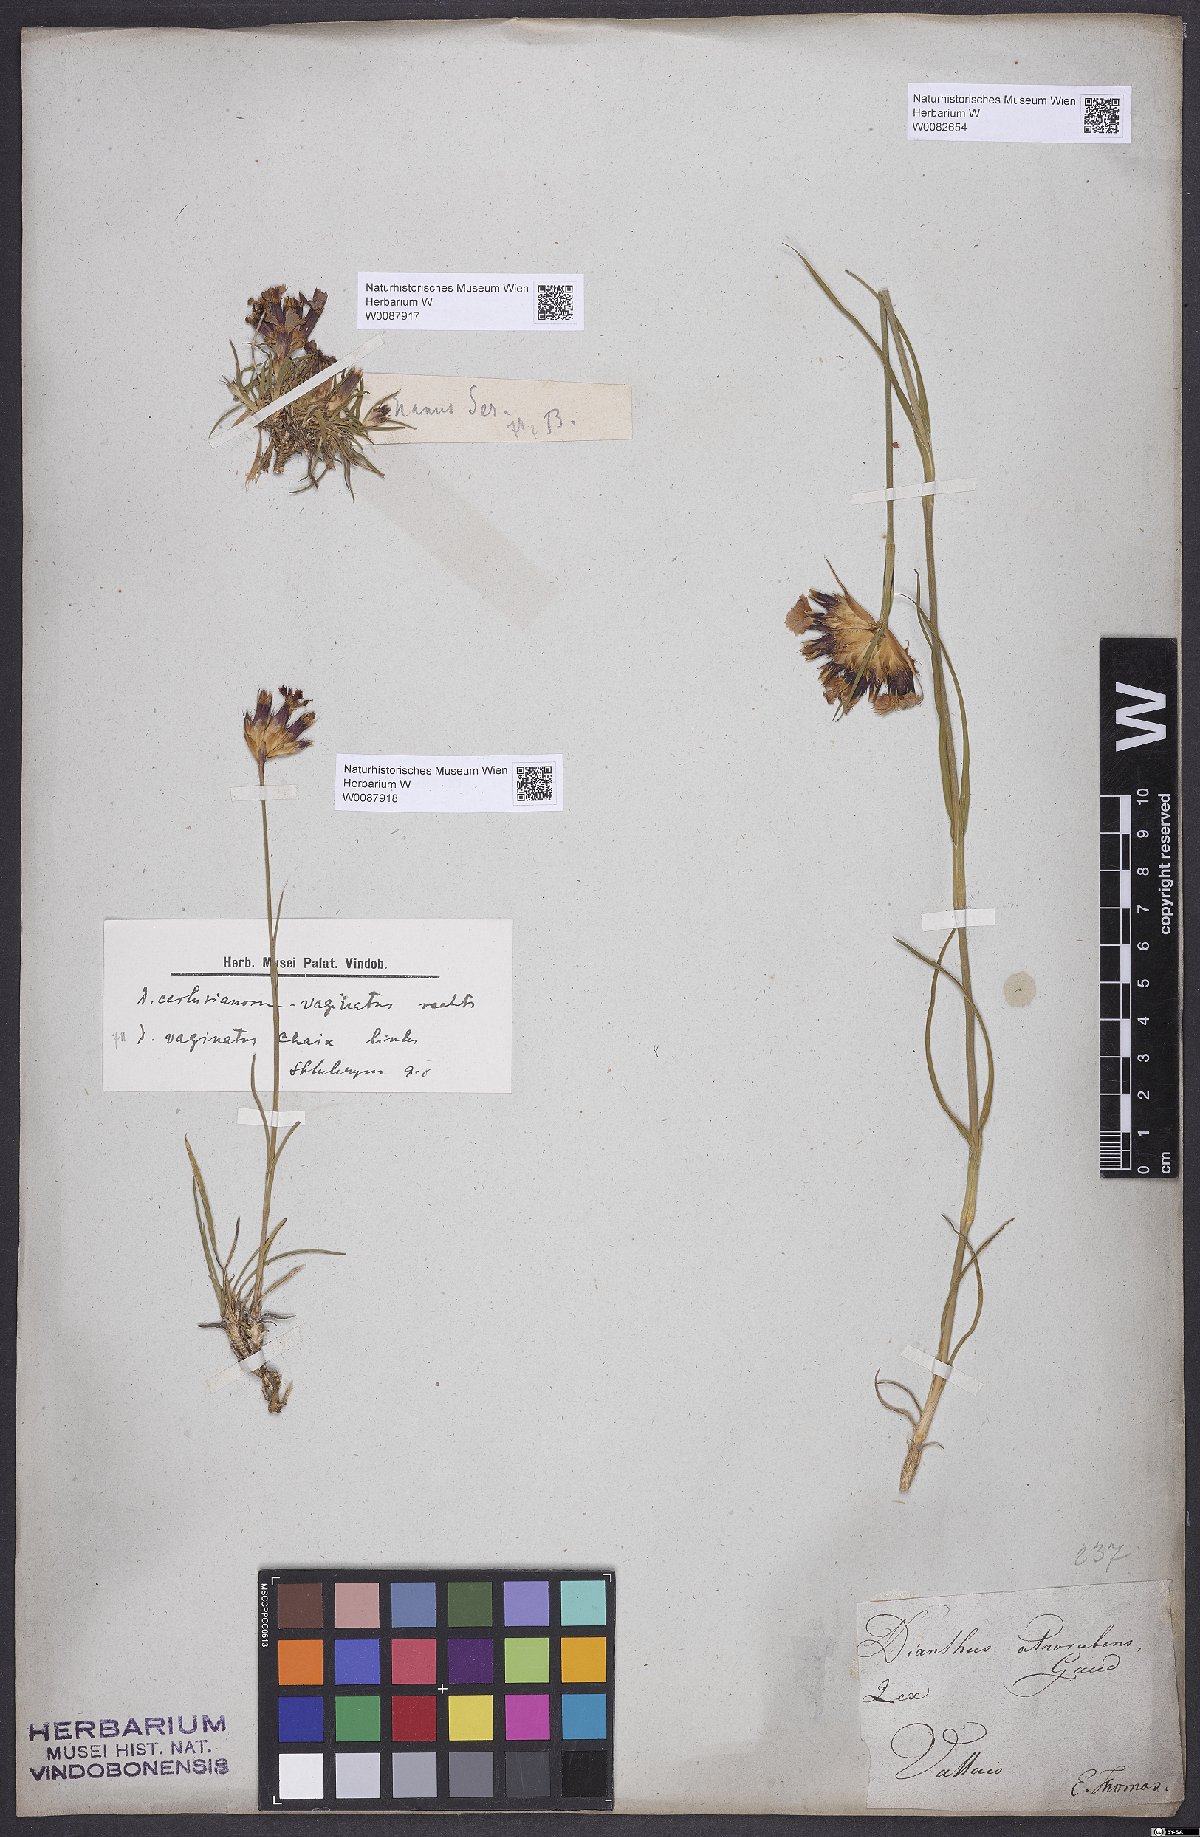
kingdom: Plantae
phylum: Tracheophyta
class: Magnoliopsida
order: Caryophyllales
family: Caryophyllaceae
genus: Dianthus
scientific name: Dianthus carthusianorum
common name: Carthusian pink
